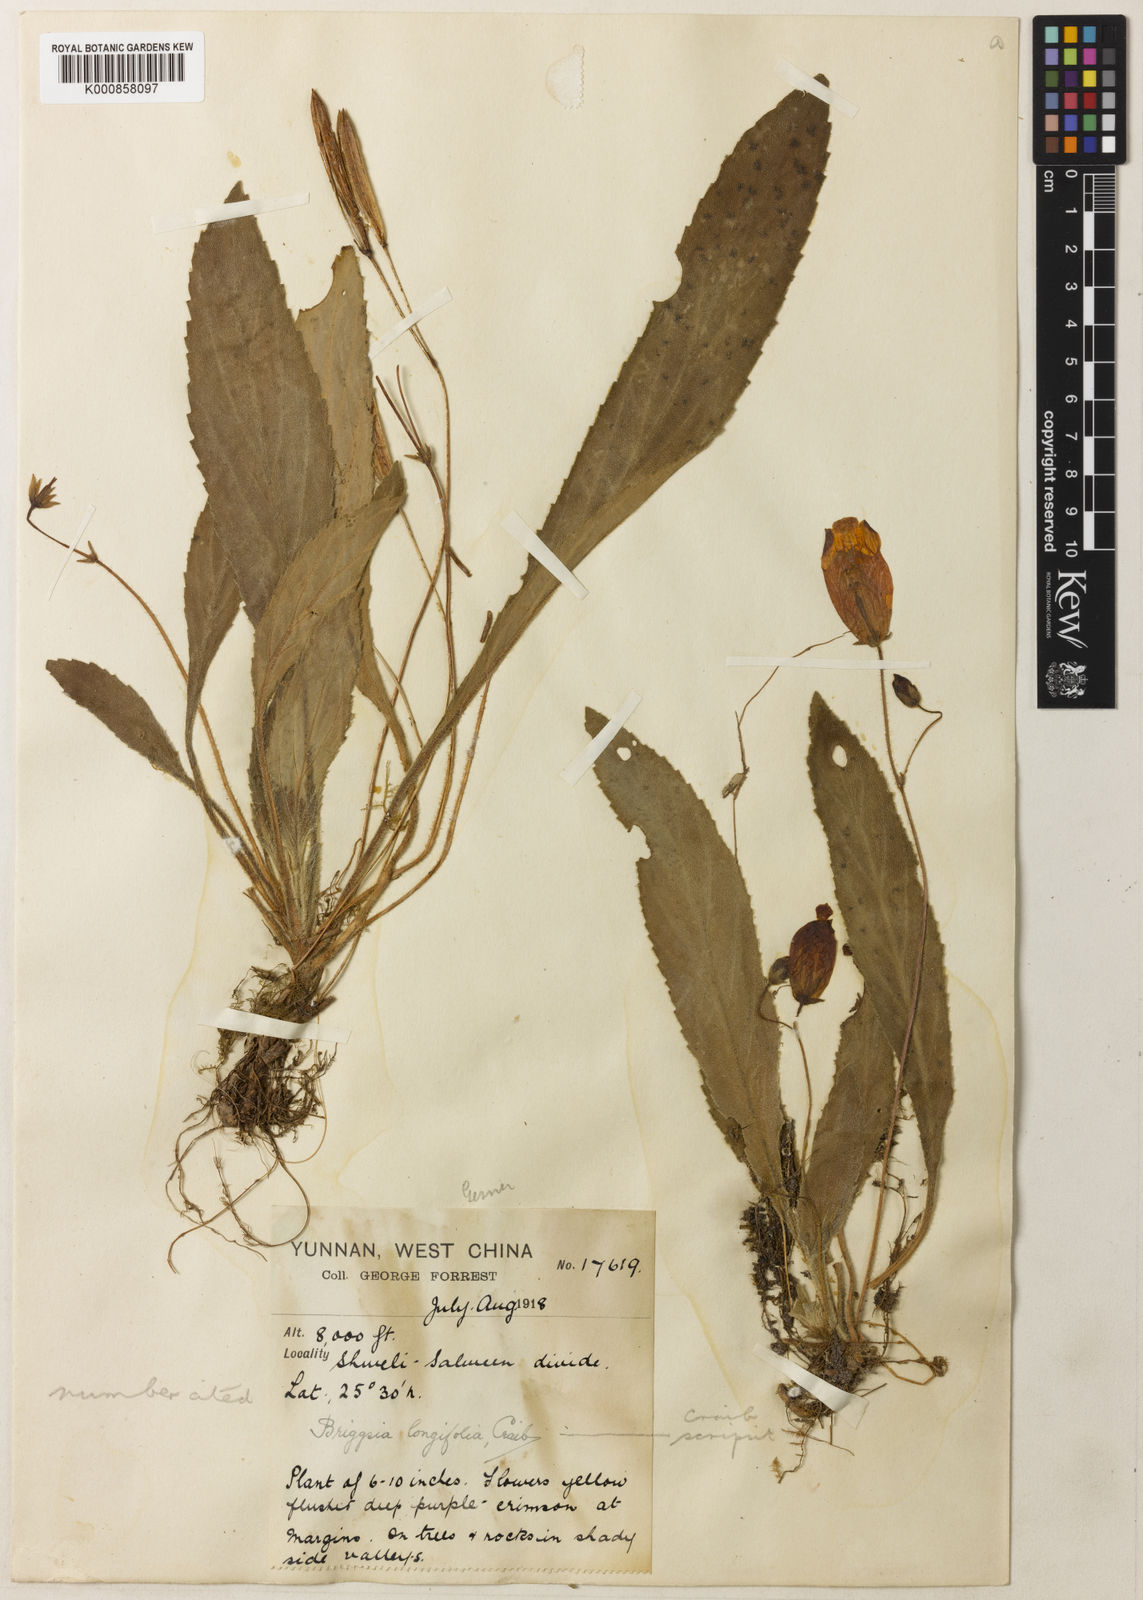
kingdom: Plantae
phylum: Tracheophyta
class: Magnoliopsida
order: Lamiales
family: Gesneriaceae
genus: Oreocharis
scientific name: Oreocharis
